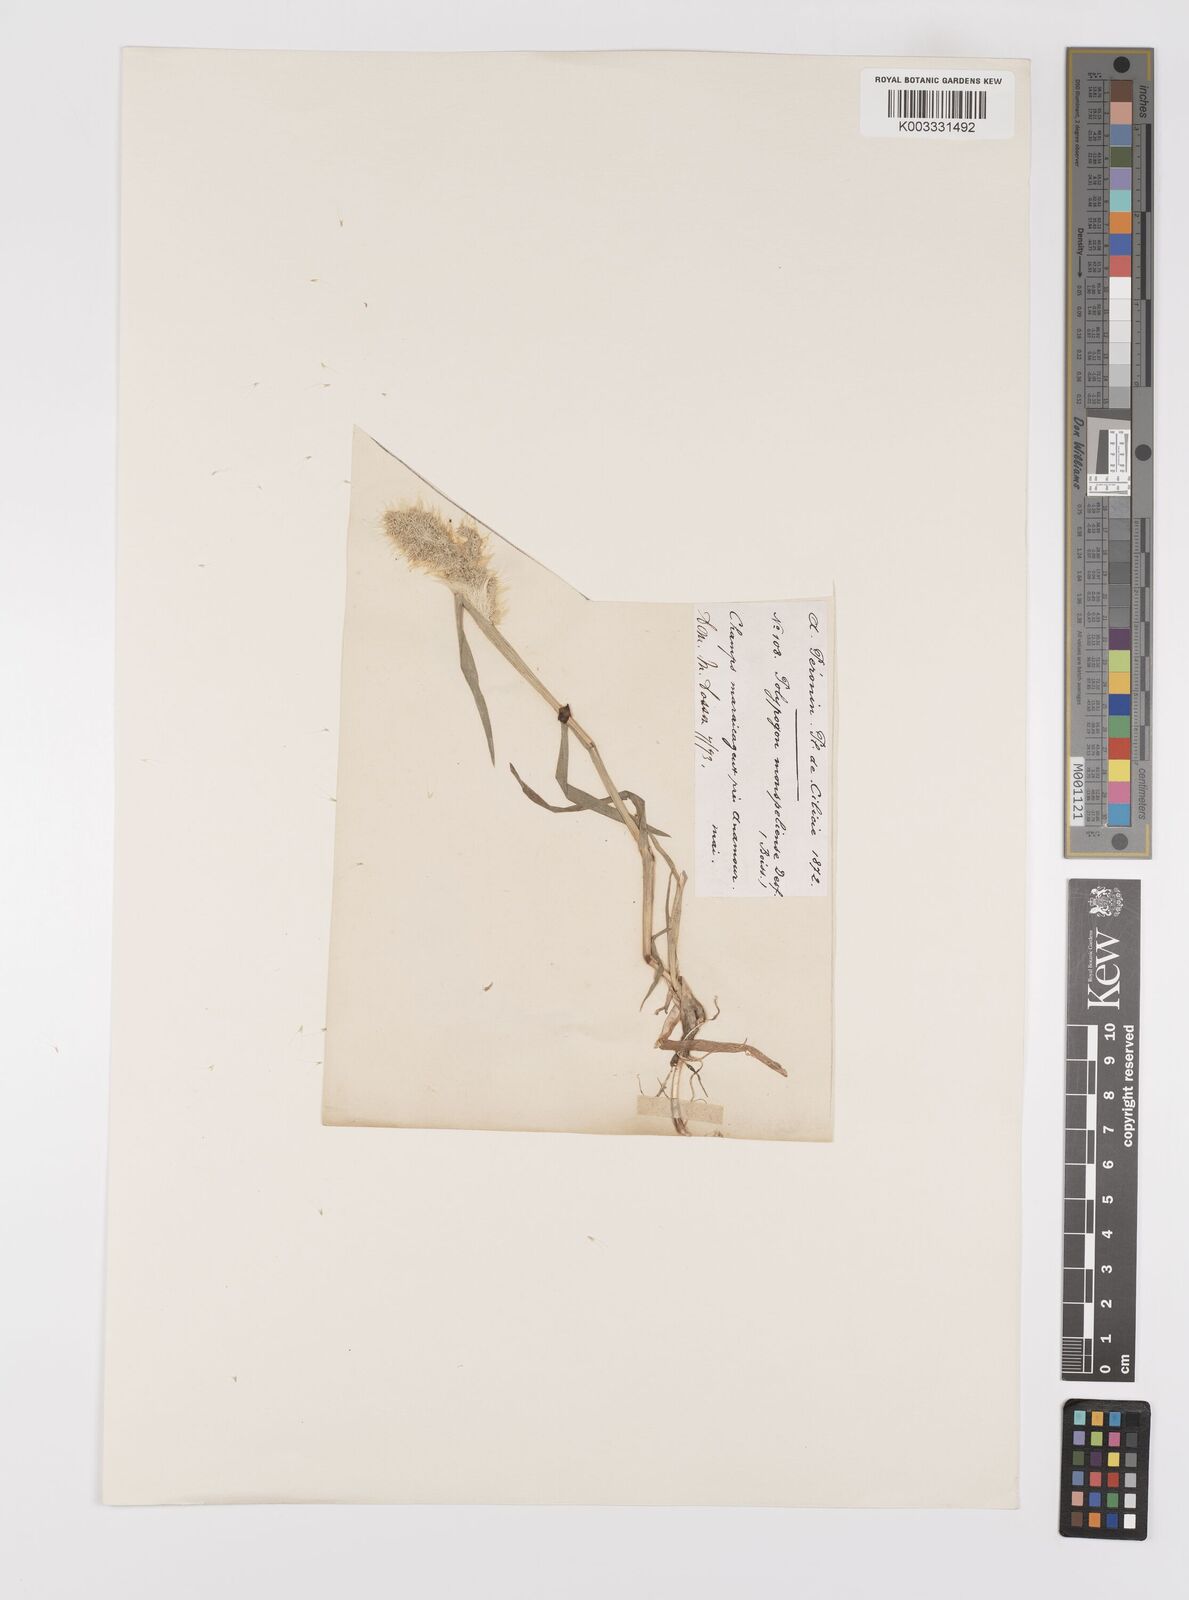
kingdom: Plantae
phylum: Tracheophyta
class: Liliopsida
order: Poales
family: Poaceae
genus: Polypogon
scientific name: Polypogon monspeliensis
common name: Annual rabbitsfoot grass
